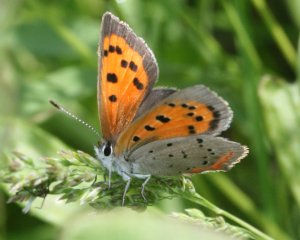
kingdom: Animalia
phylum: Arthropoda
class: Insecta
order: Lepidoptera
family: Lycaenidae
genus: Lycaena
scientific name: Lycaena phlaeas
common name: American Copper
